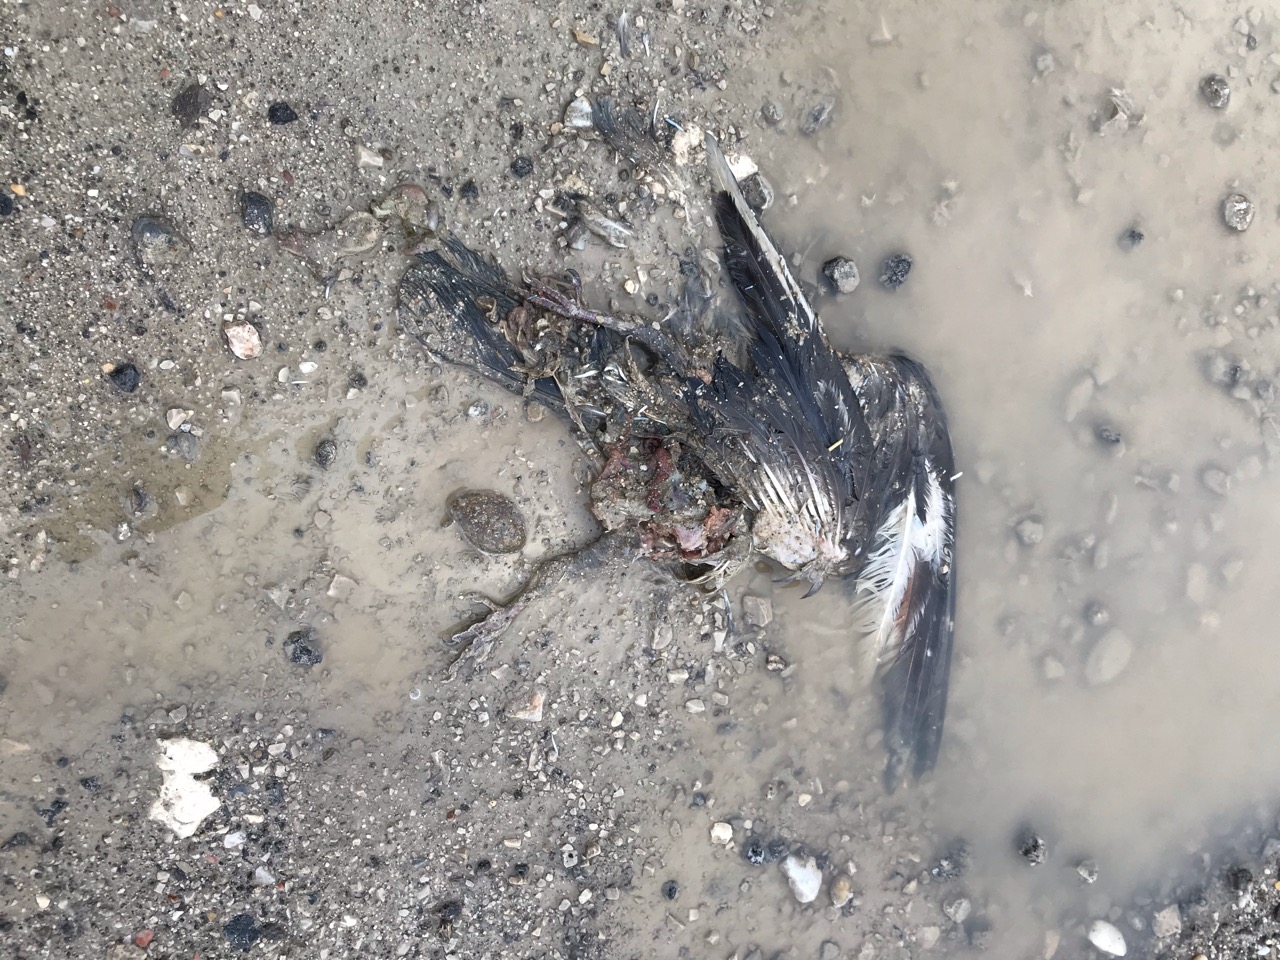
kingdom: Animalia
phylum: Chordata
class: Aves
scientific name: Aves
